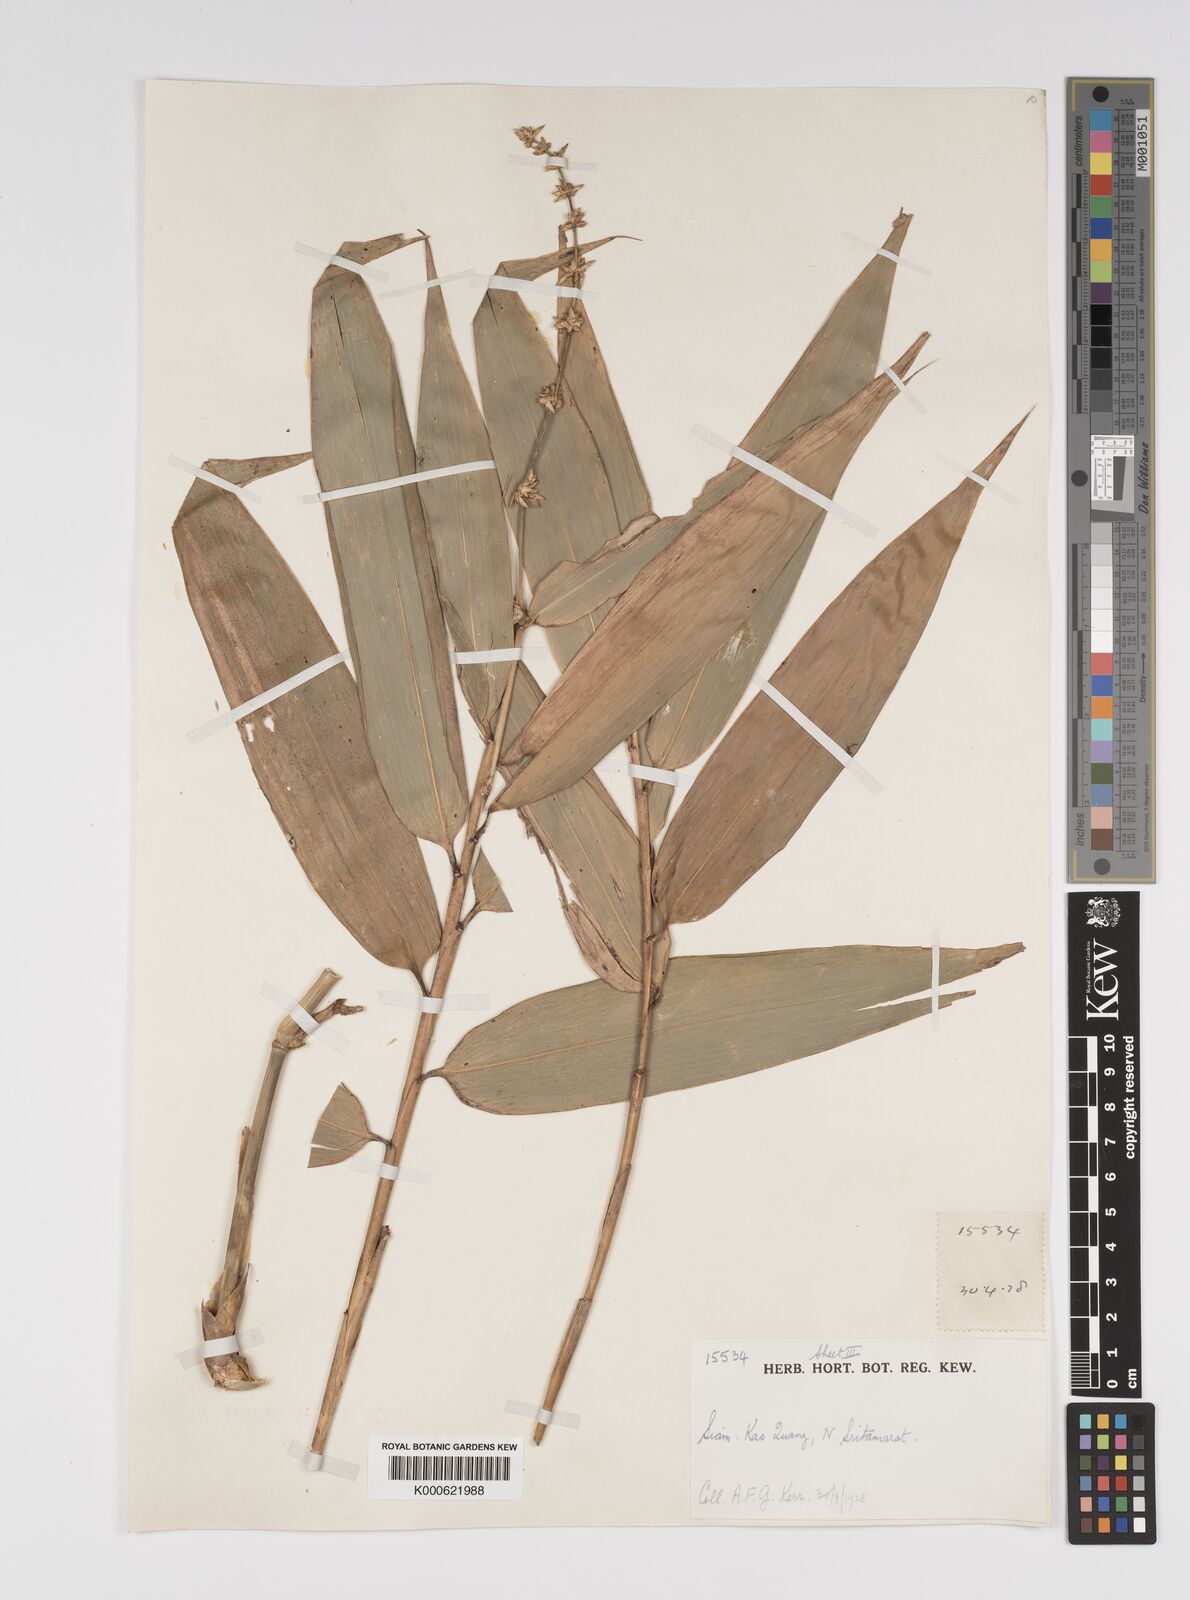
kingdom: Plantae
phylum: Tracheophyta
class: Liliopsida
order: Poales
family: Poaceae
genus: Bambusa
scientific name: Bambusa
